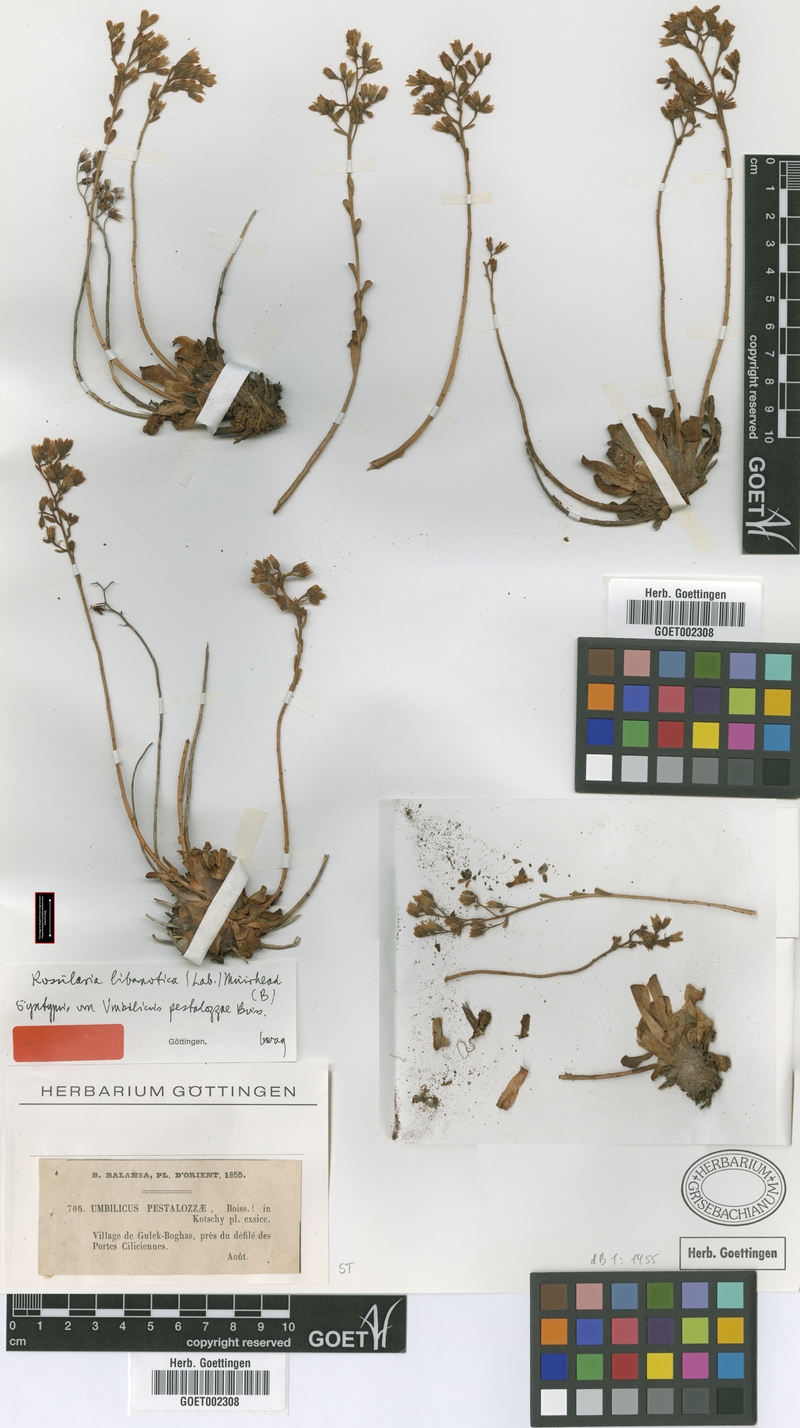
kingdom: Plantae
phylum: Tracheophyta
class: Magnoliopsida
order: Saxifragales
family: Crassulaceae
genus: Rosularia
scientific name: Rosularia sempervivum
